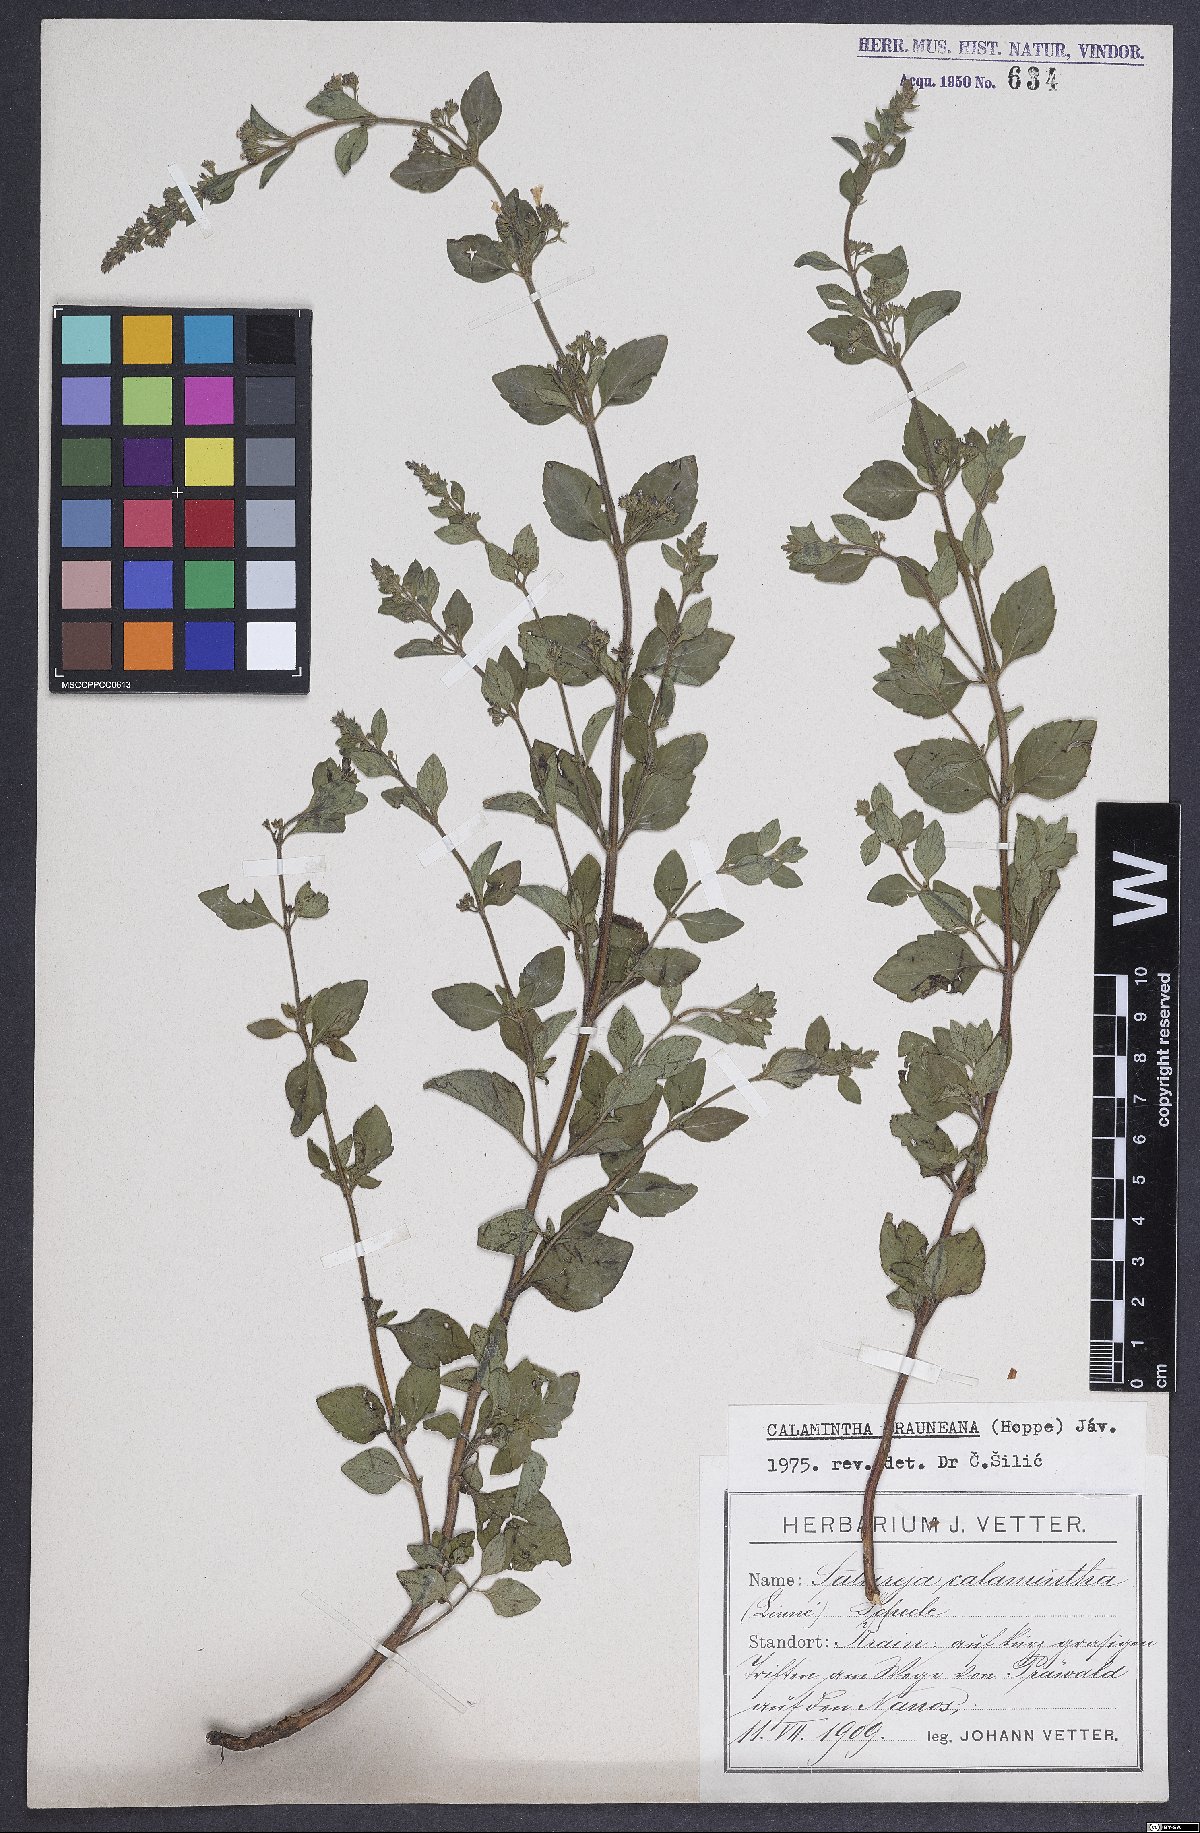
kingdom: Plantae
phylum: Tracheophyta
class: Magnoliopsida
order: Lamiales
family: Lamiaceae
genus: Clinopodium
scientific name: Clinopodium nepeta
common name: Lesser calamint
